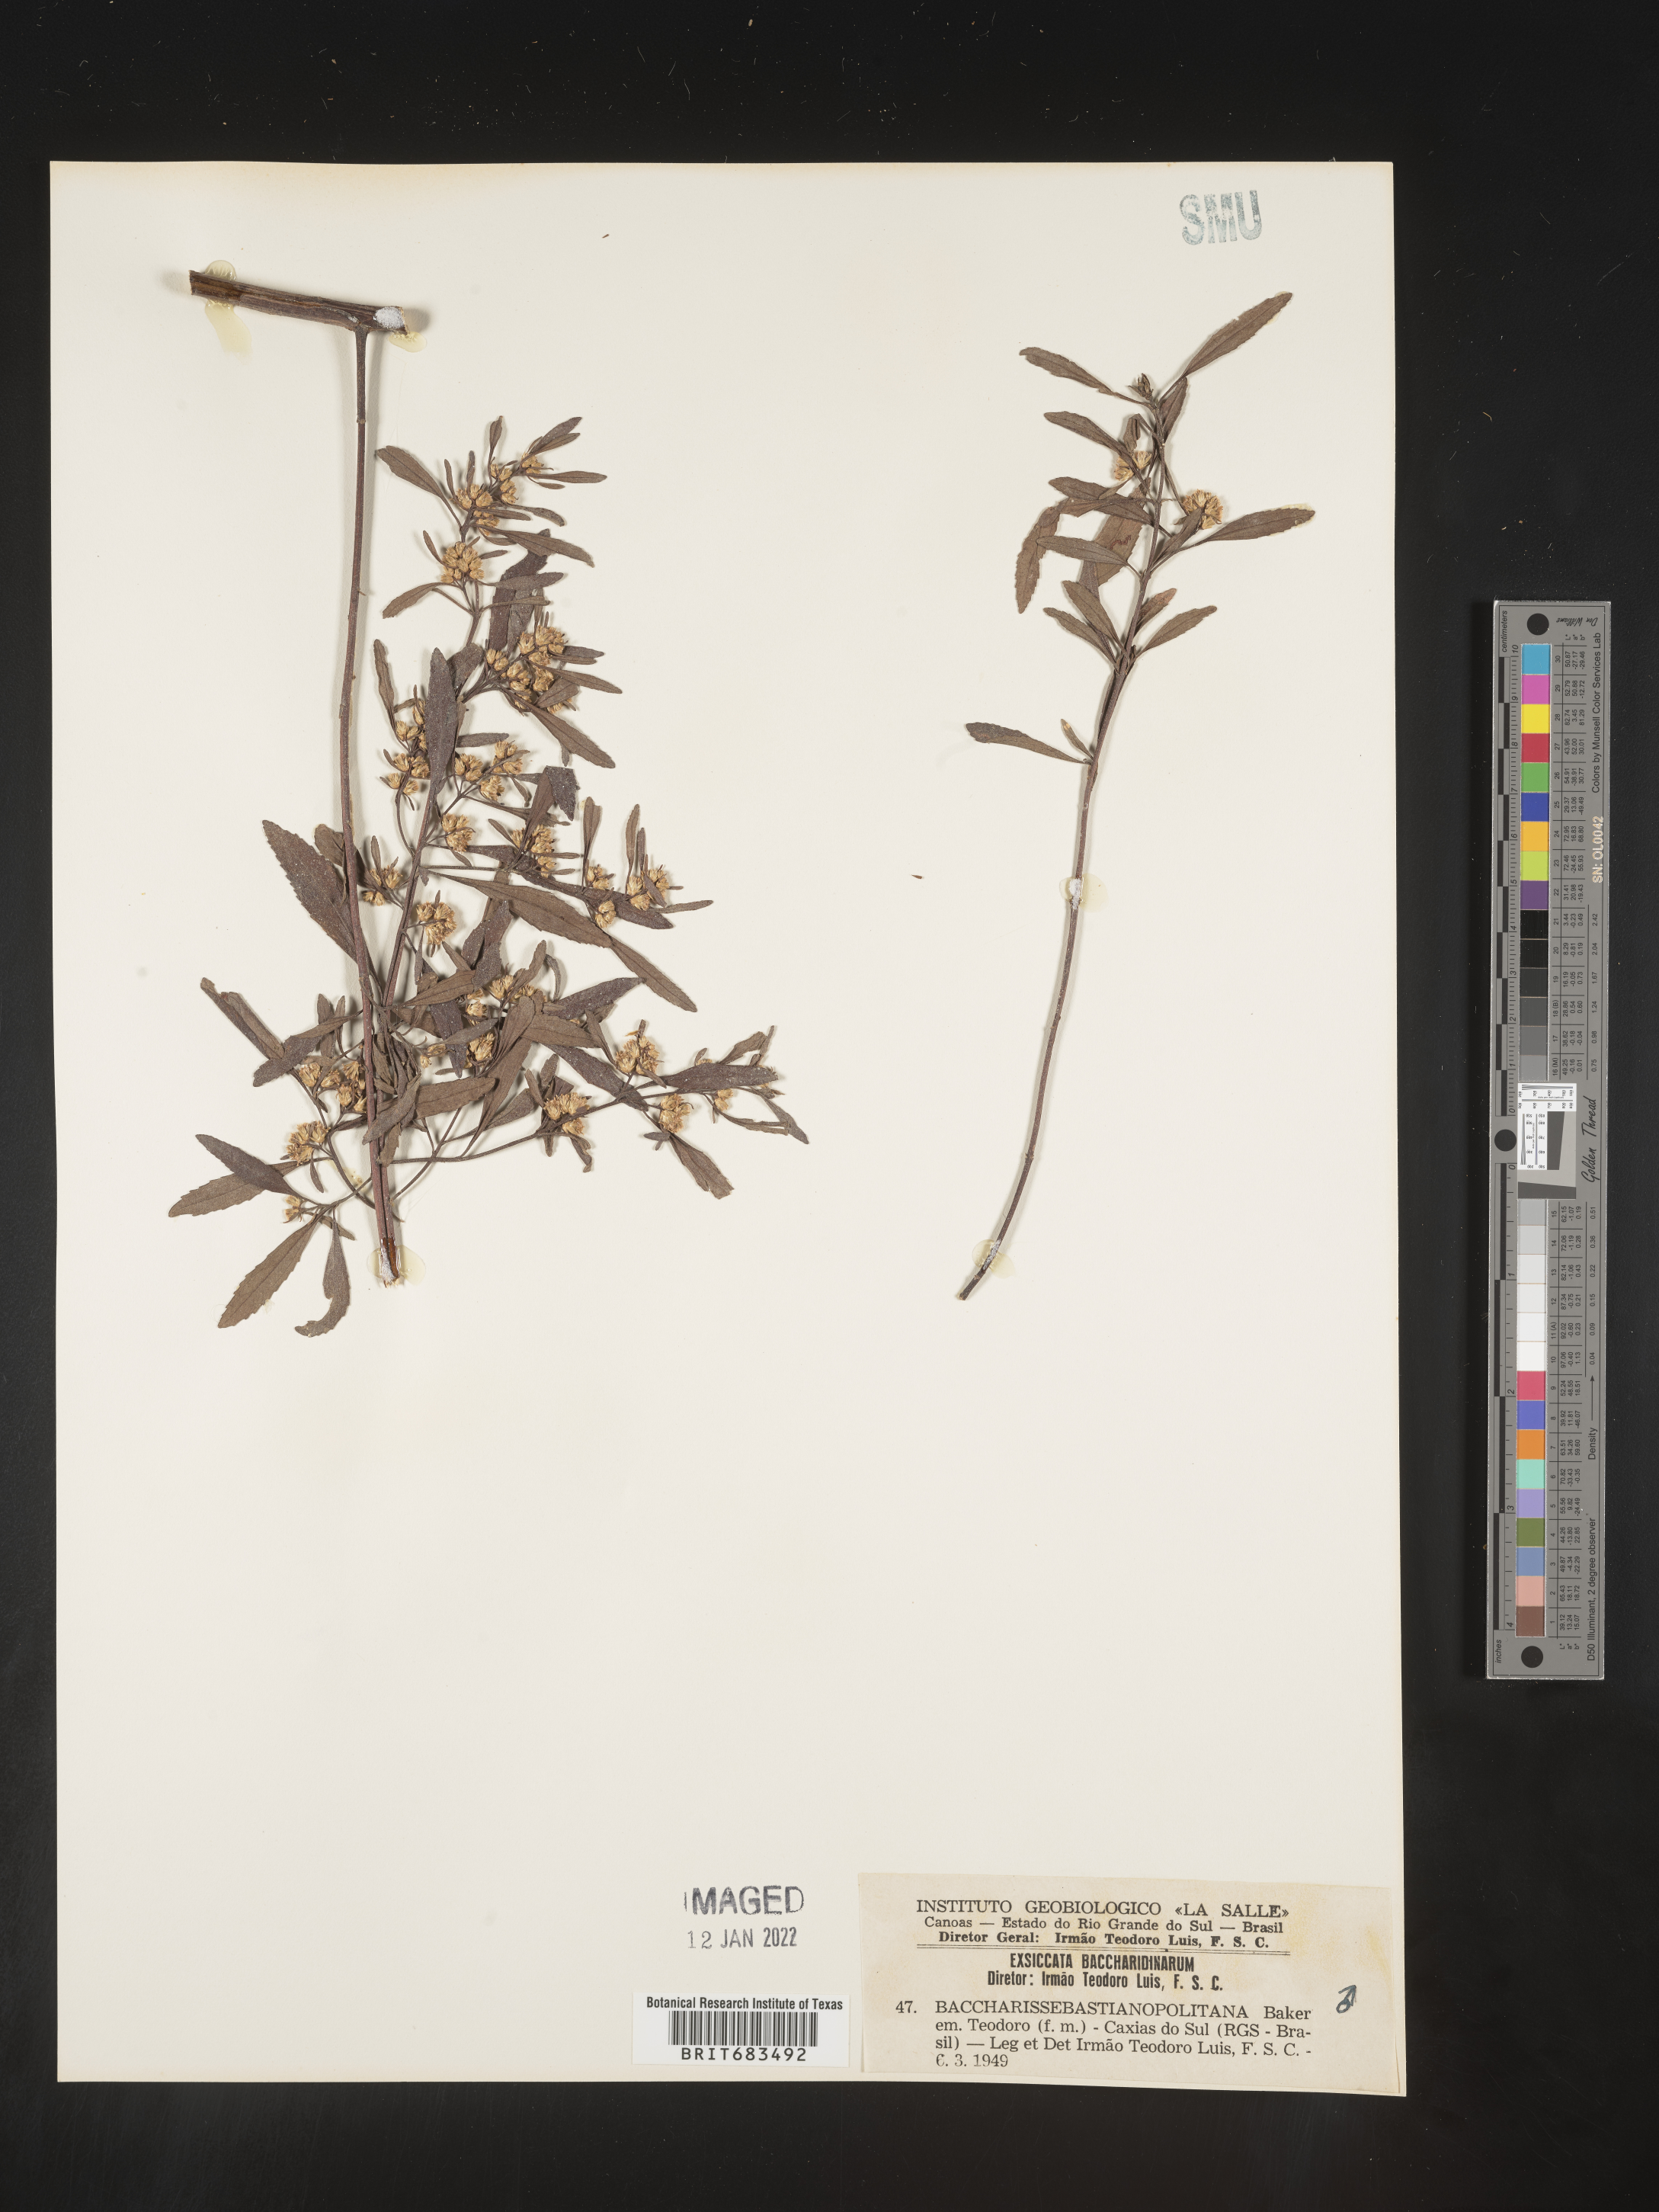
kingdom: Plantae
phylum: Tracheophyta
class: Magnoliopsida
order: Asterales
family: Asteraceae
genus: Baccharis
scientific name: Baccharis
